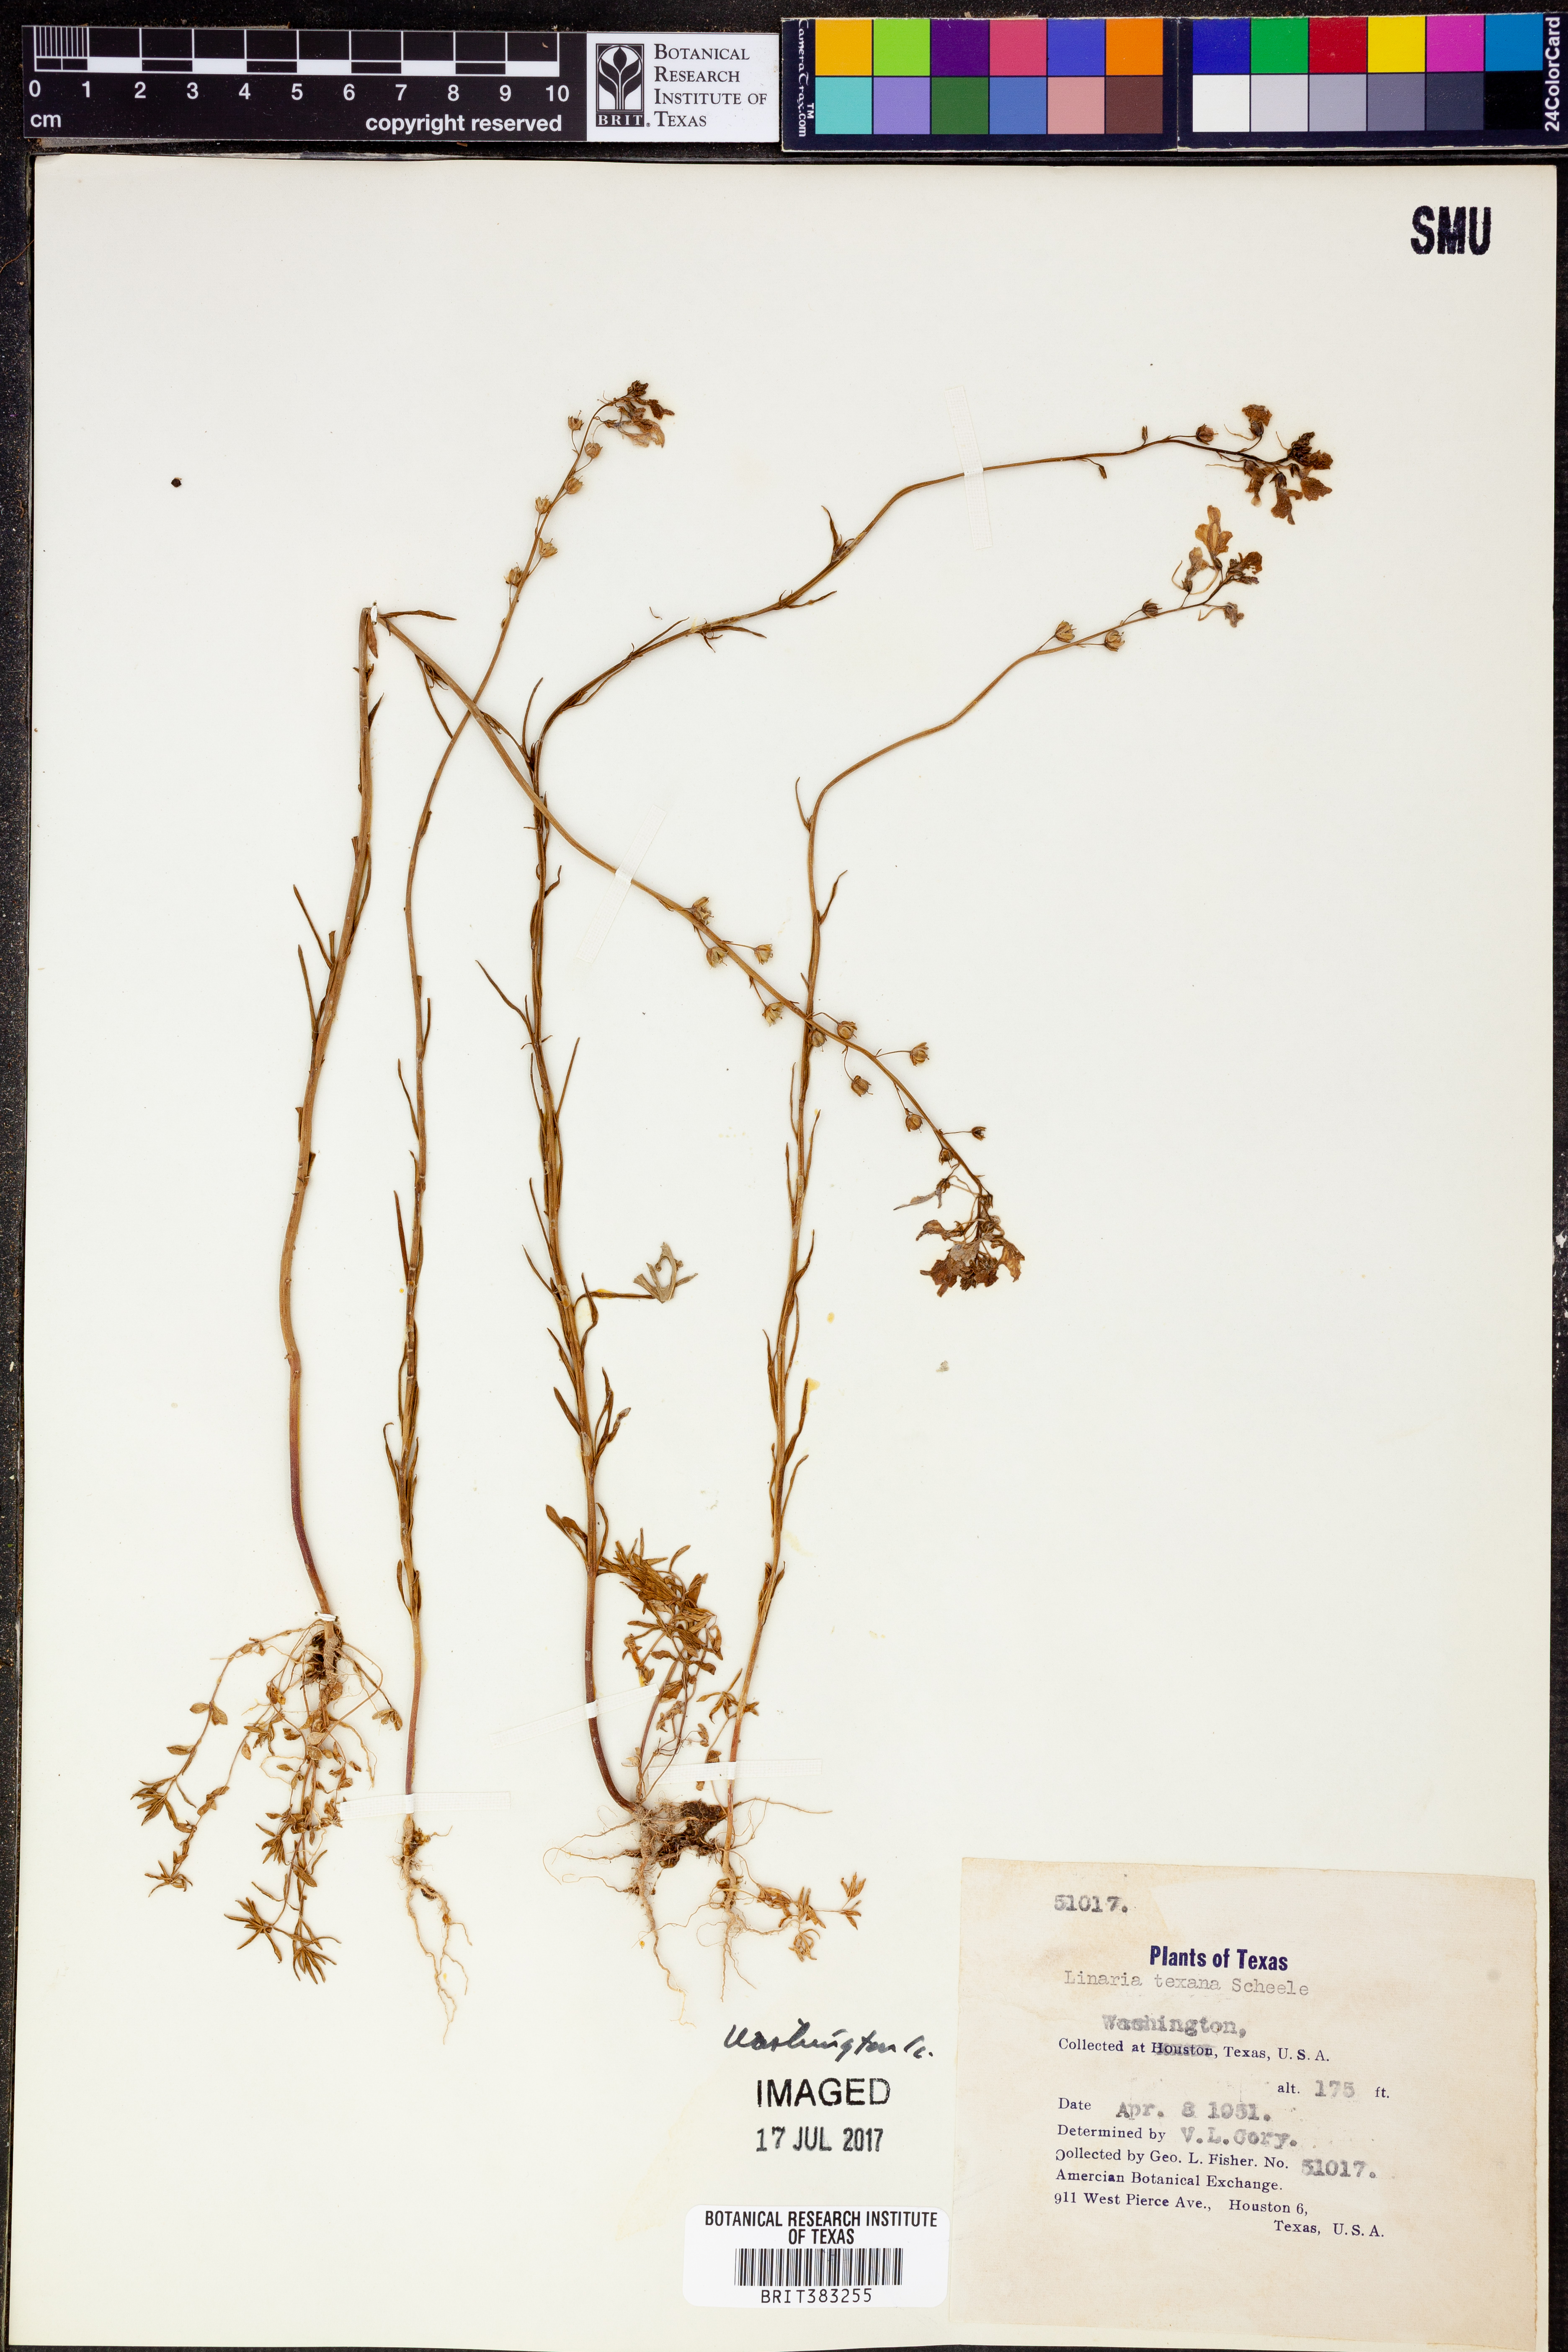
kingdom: Plantae
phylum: Tracheophyta
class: Magnoliopsida
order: Lamiales
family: Plantaginaceae
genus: Nuttallanthus
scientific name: Nuttallanthus texanus
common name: Texas toadflax
